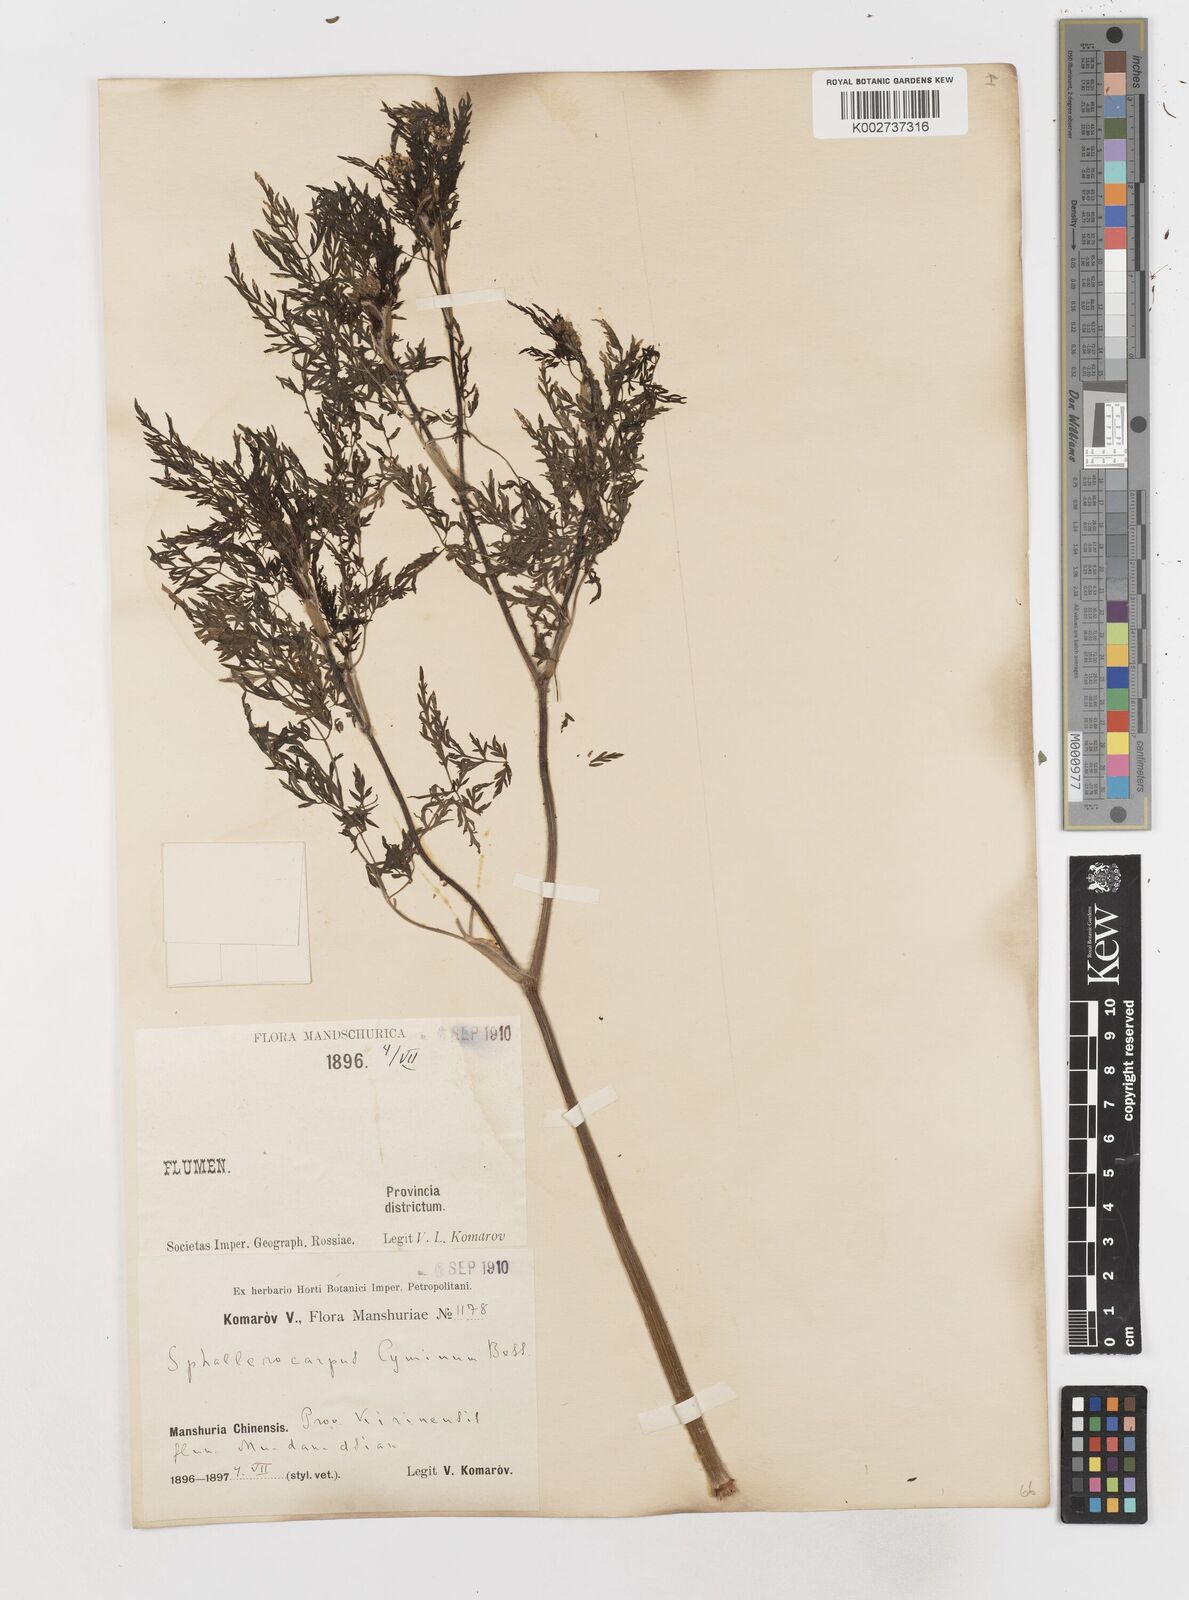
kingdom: Plantae
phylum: Tracheophyta
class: Magnoliopsida
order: Apiales
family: Apiaceae
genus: Sphallerocarpus
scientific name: Sphallerocarpus gracilis
